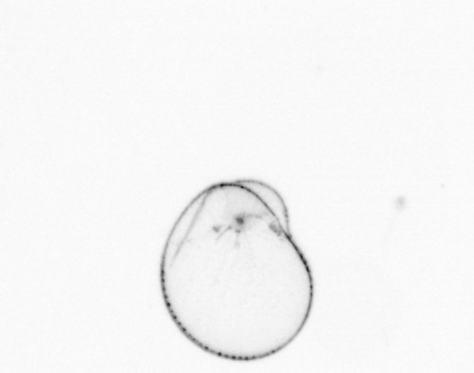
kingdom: Chromista
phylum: Myzozoa
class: Dinophyceae
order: Noctilucales
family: Noctilucaceae
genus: Noctiluca
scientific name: Noctiluca scintillans
